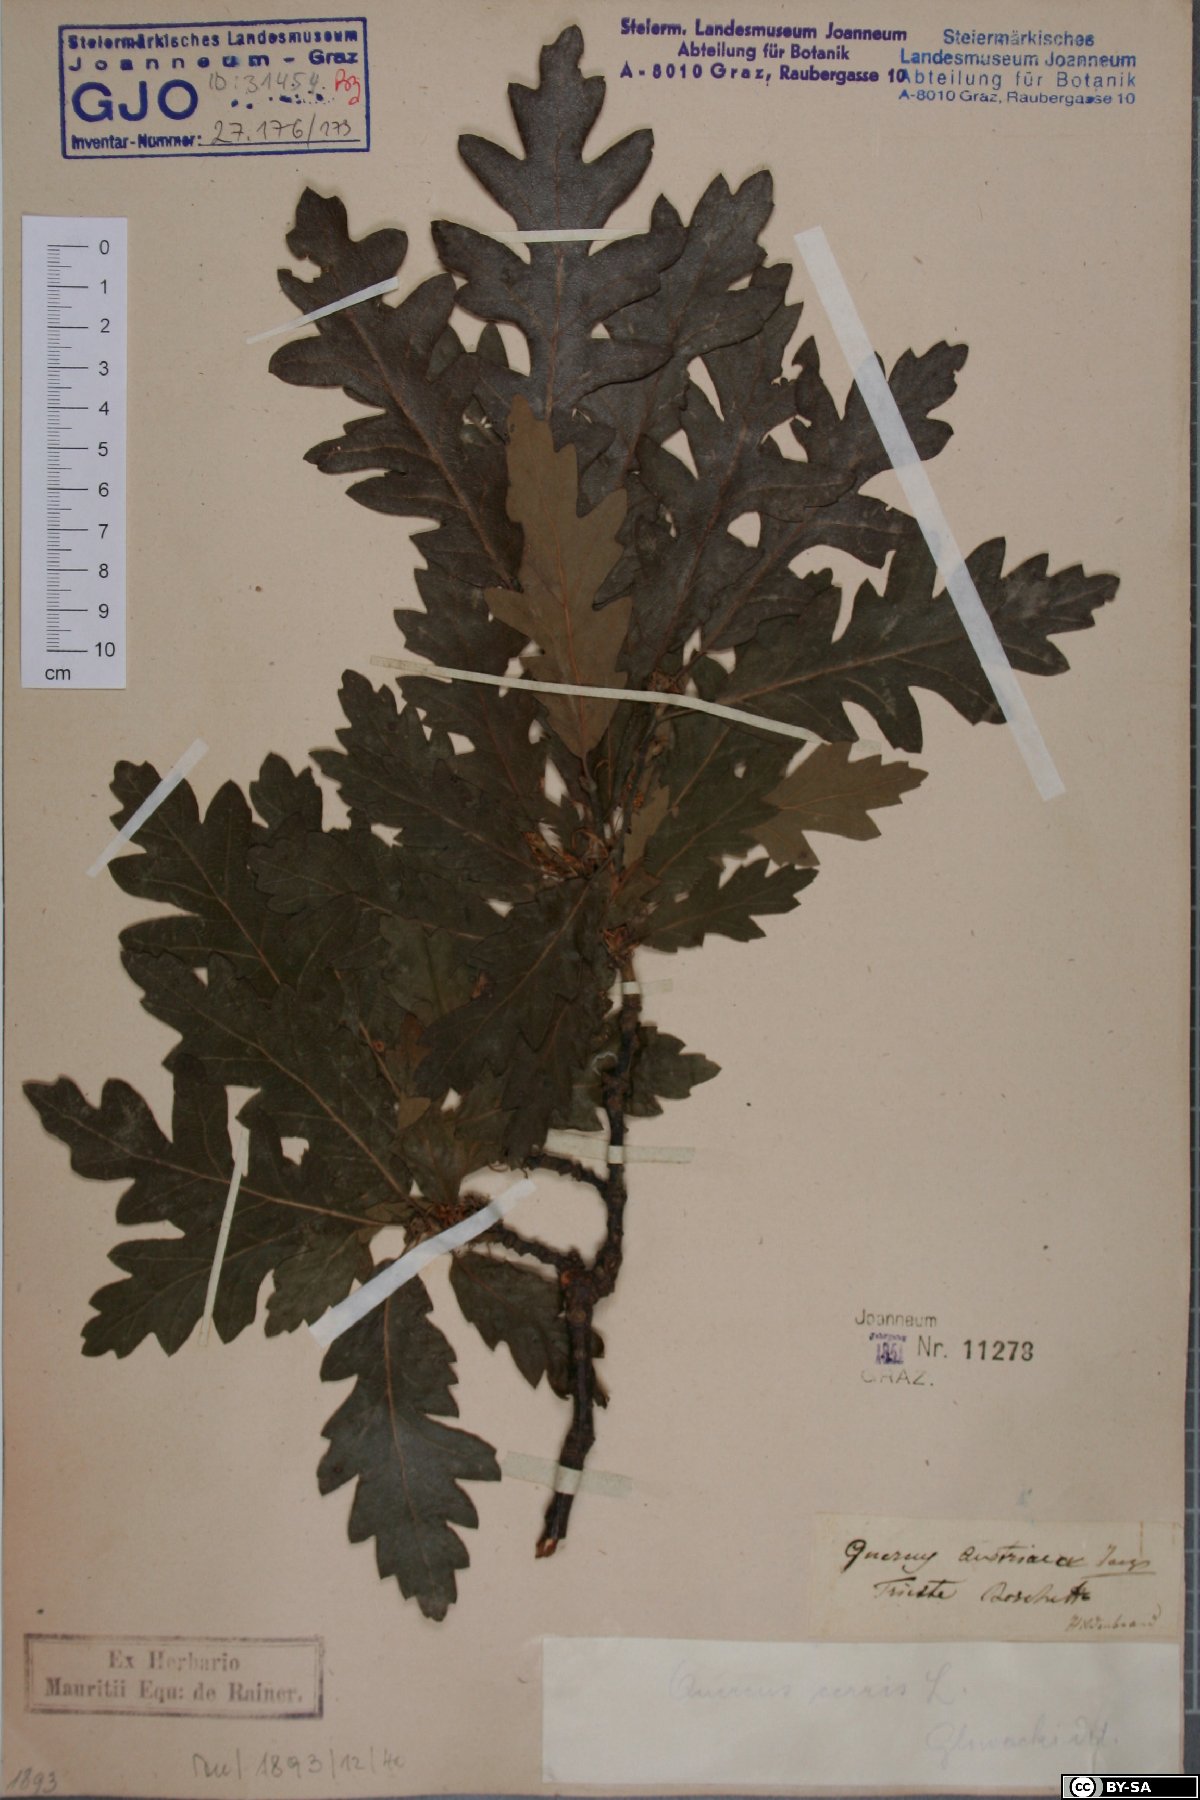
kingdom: Plantae
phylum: Tracheophyta
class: Magnoliopsida
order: Fagales
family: Fagaceae
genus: Quercus
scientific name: Quercus cerris
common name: Turkey oak
